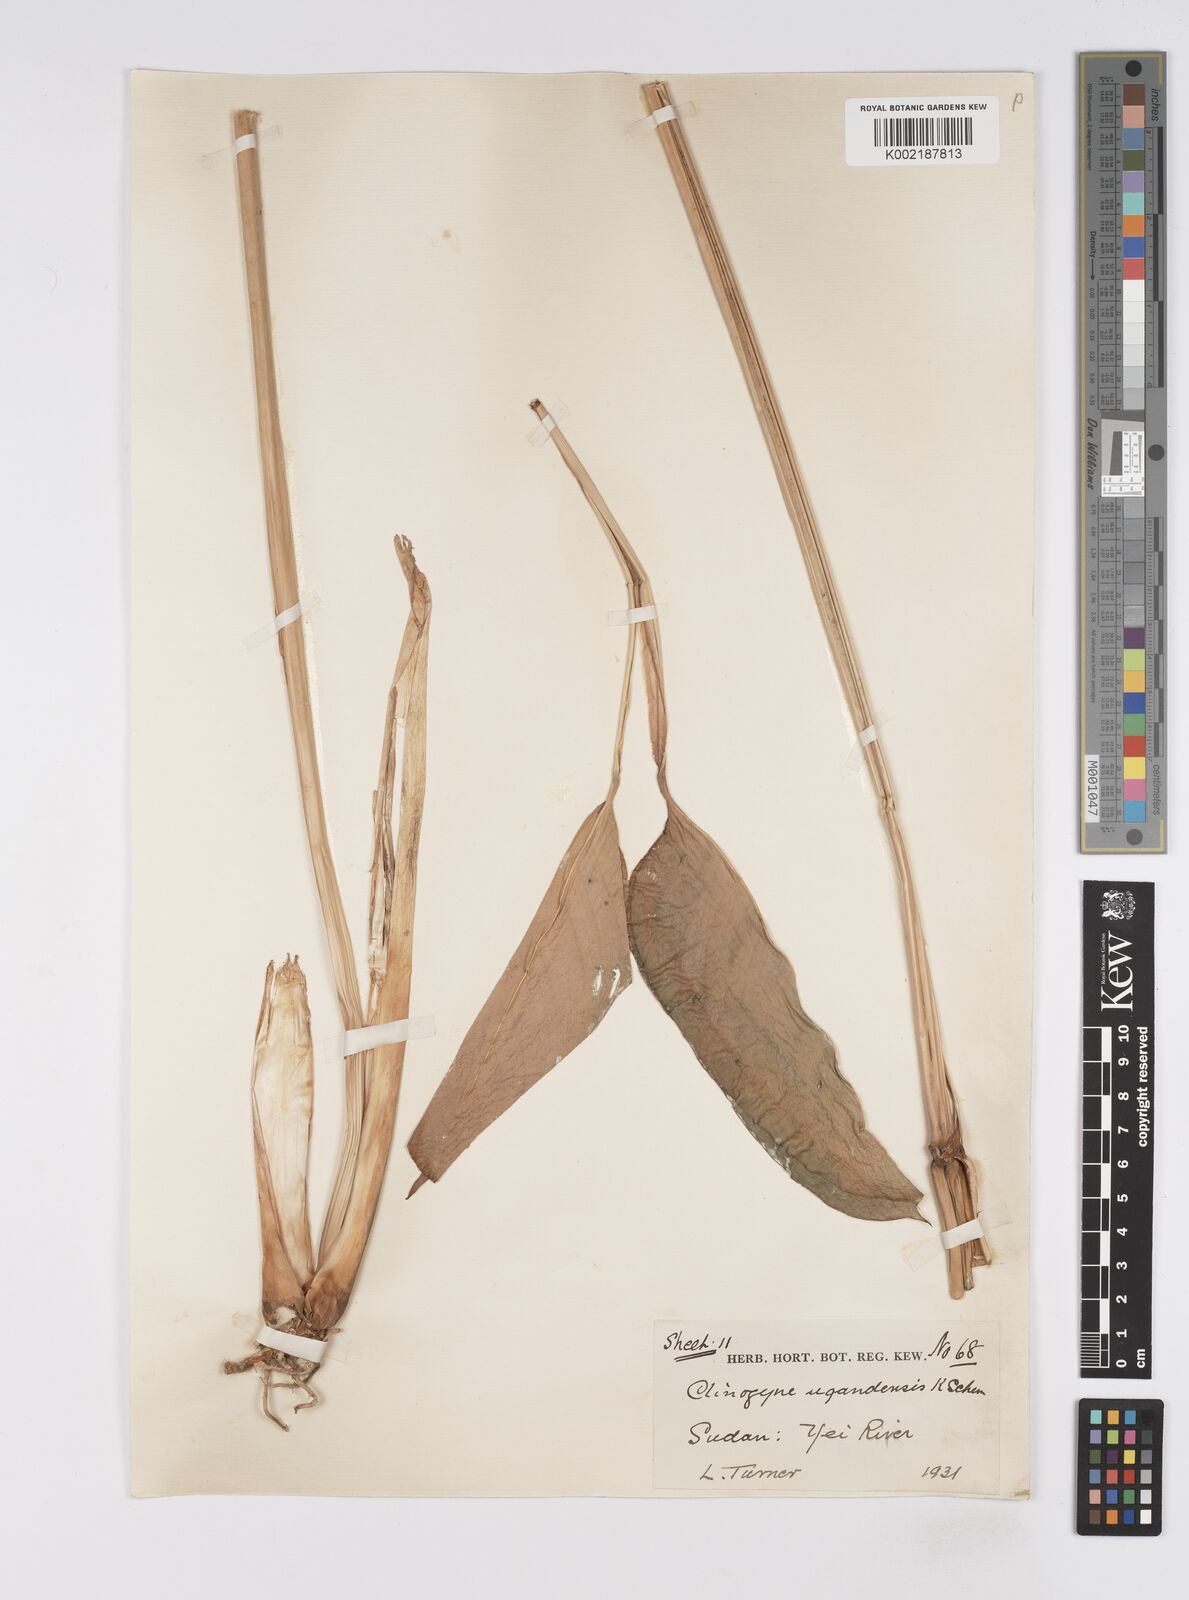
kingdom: Plantae
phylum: Tracheophyta
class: Liliopsida
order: Zingiberales
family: Marantaceae
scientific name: Marantaceae
